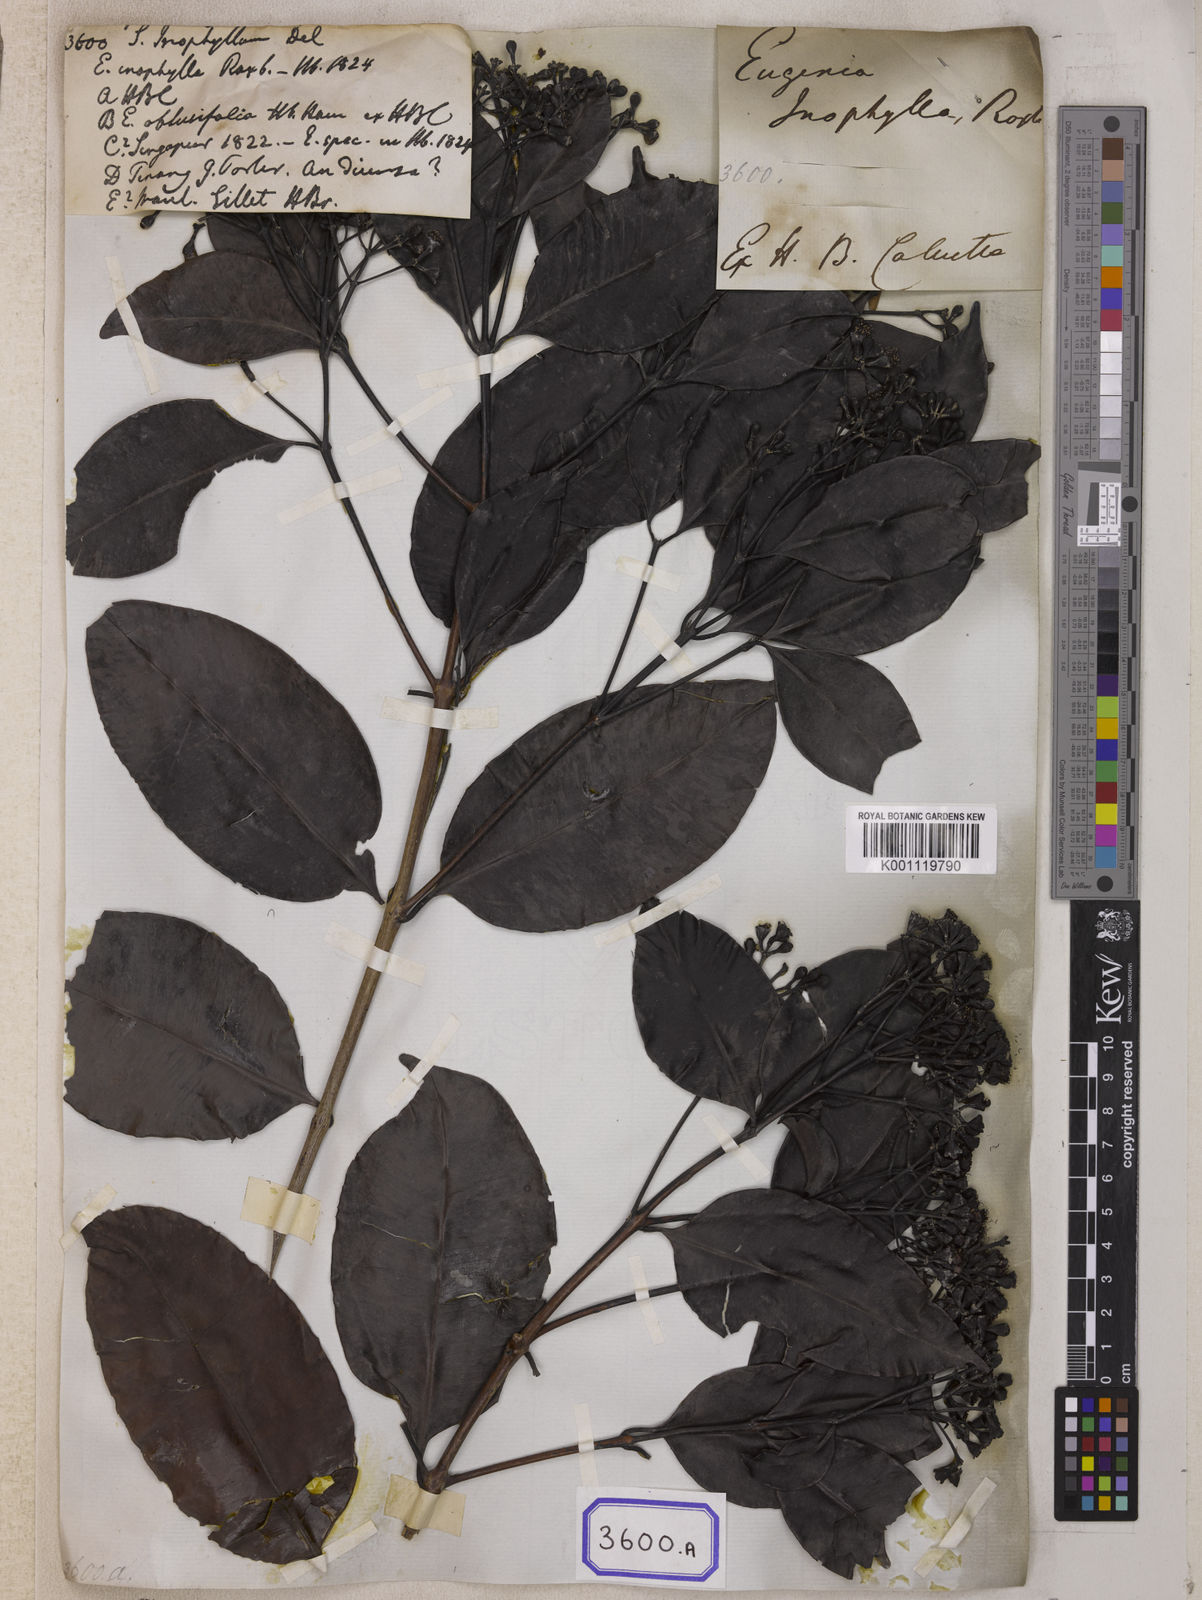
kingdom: Plantae
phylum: Tracheophyta
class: Magnoliopsida
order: Myrtales
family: Myrtaceae
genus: Syzygium
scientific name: Syzygium inophyllum
